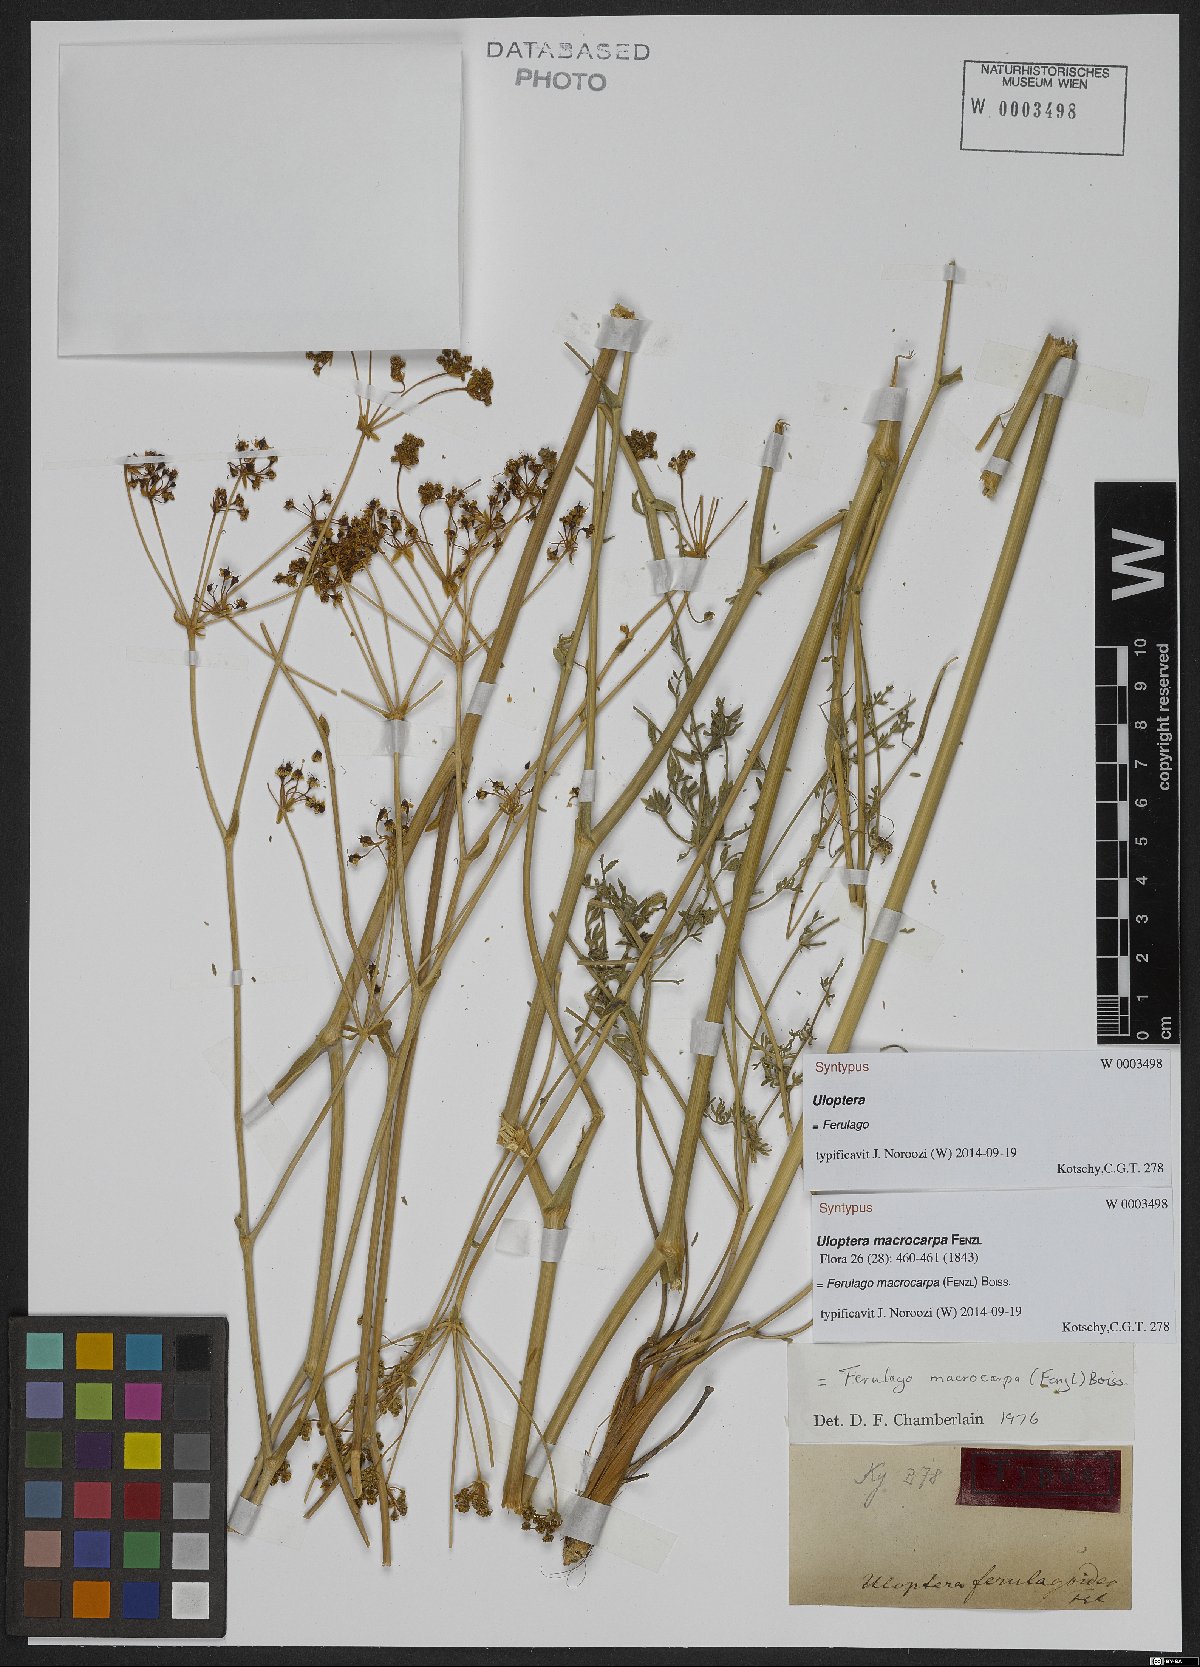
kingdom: Plantae
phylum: Tracheophyta
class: Magnoliopsida
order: Apiales
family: Apiaceae
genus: Ferulago
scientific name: Ferulago macrocarpa
